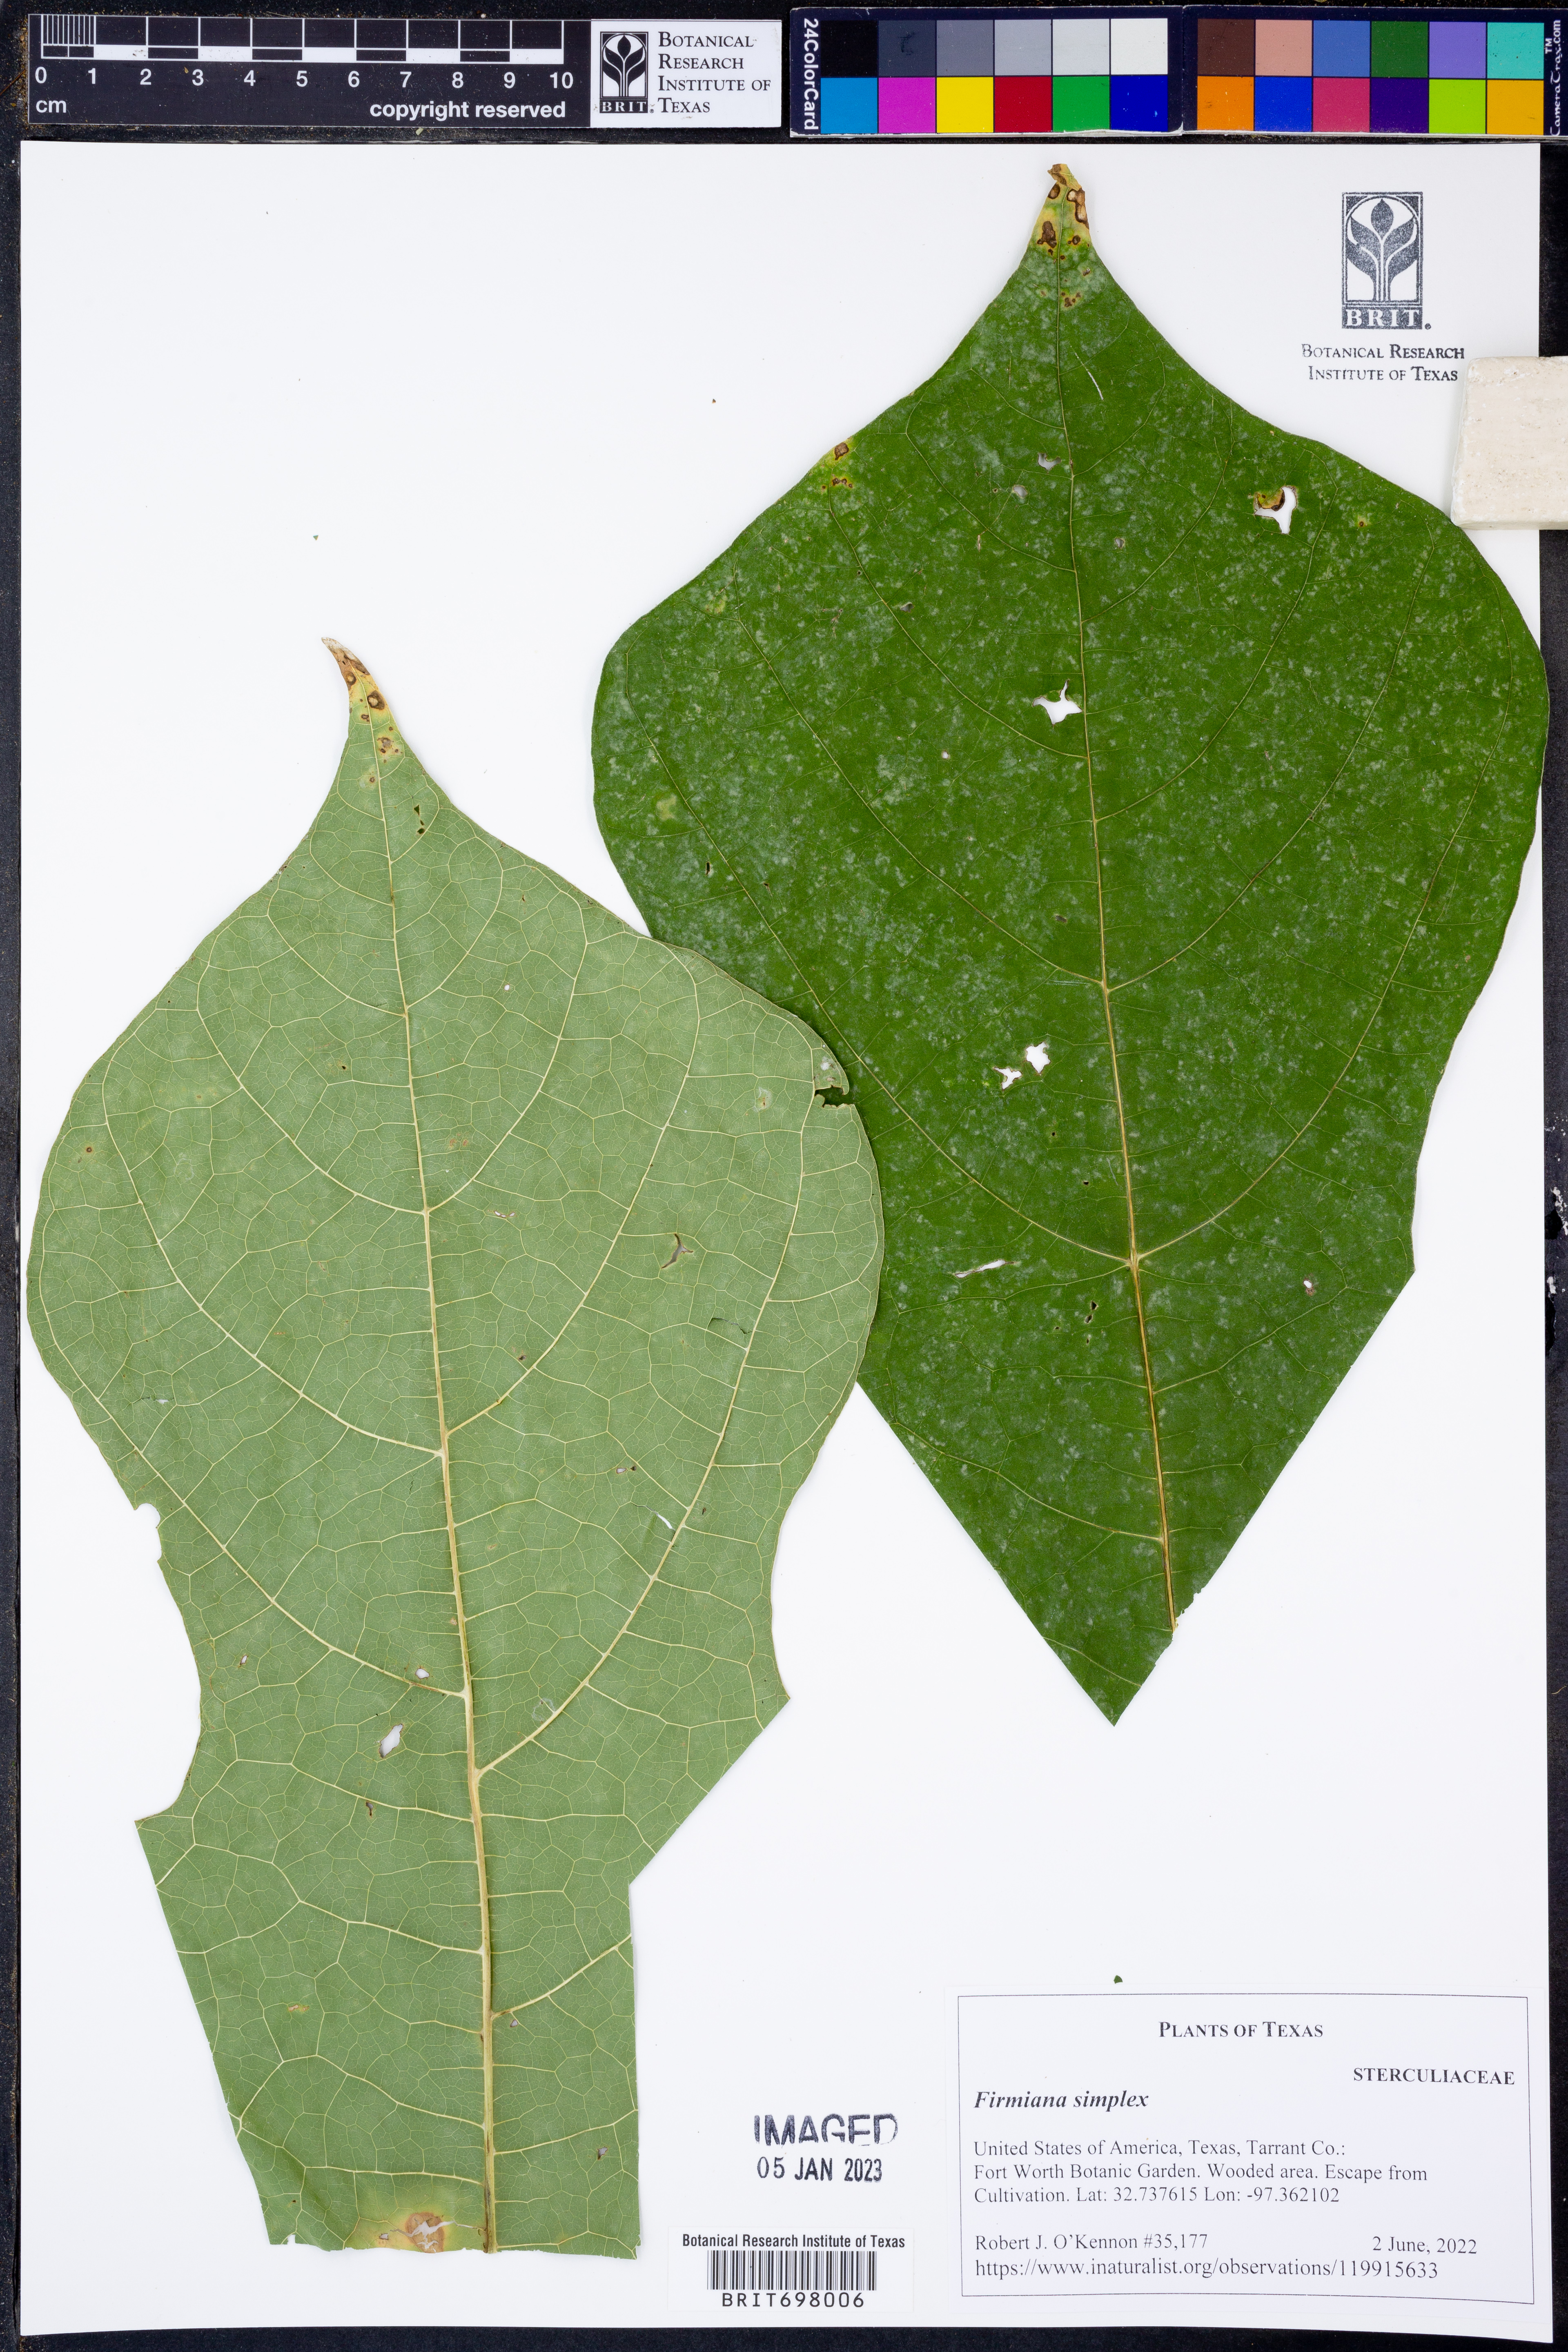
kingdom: Plantae
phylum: Tracheophyta
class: Magnoliopsida
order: Malvales
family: Malvaceae
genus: Firmiana
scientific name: Firmiana simplex
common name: Chinese parasoltree
